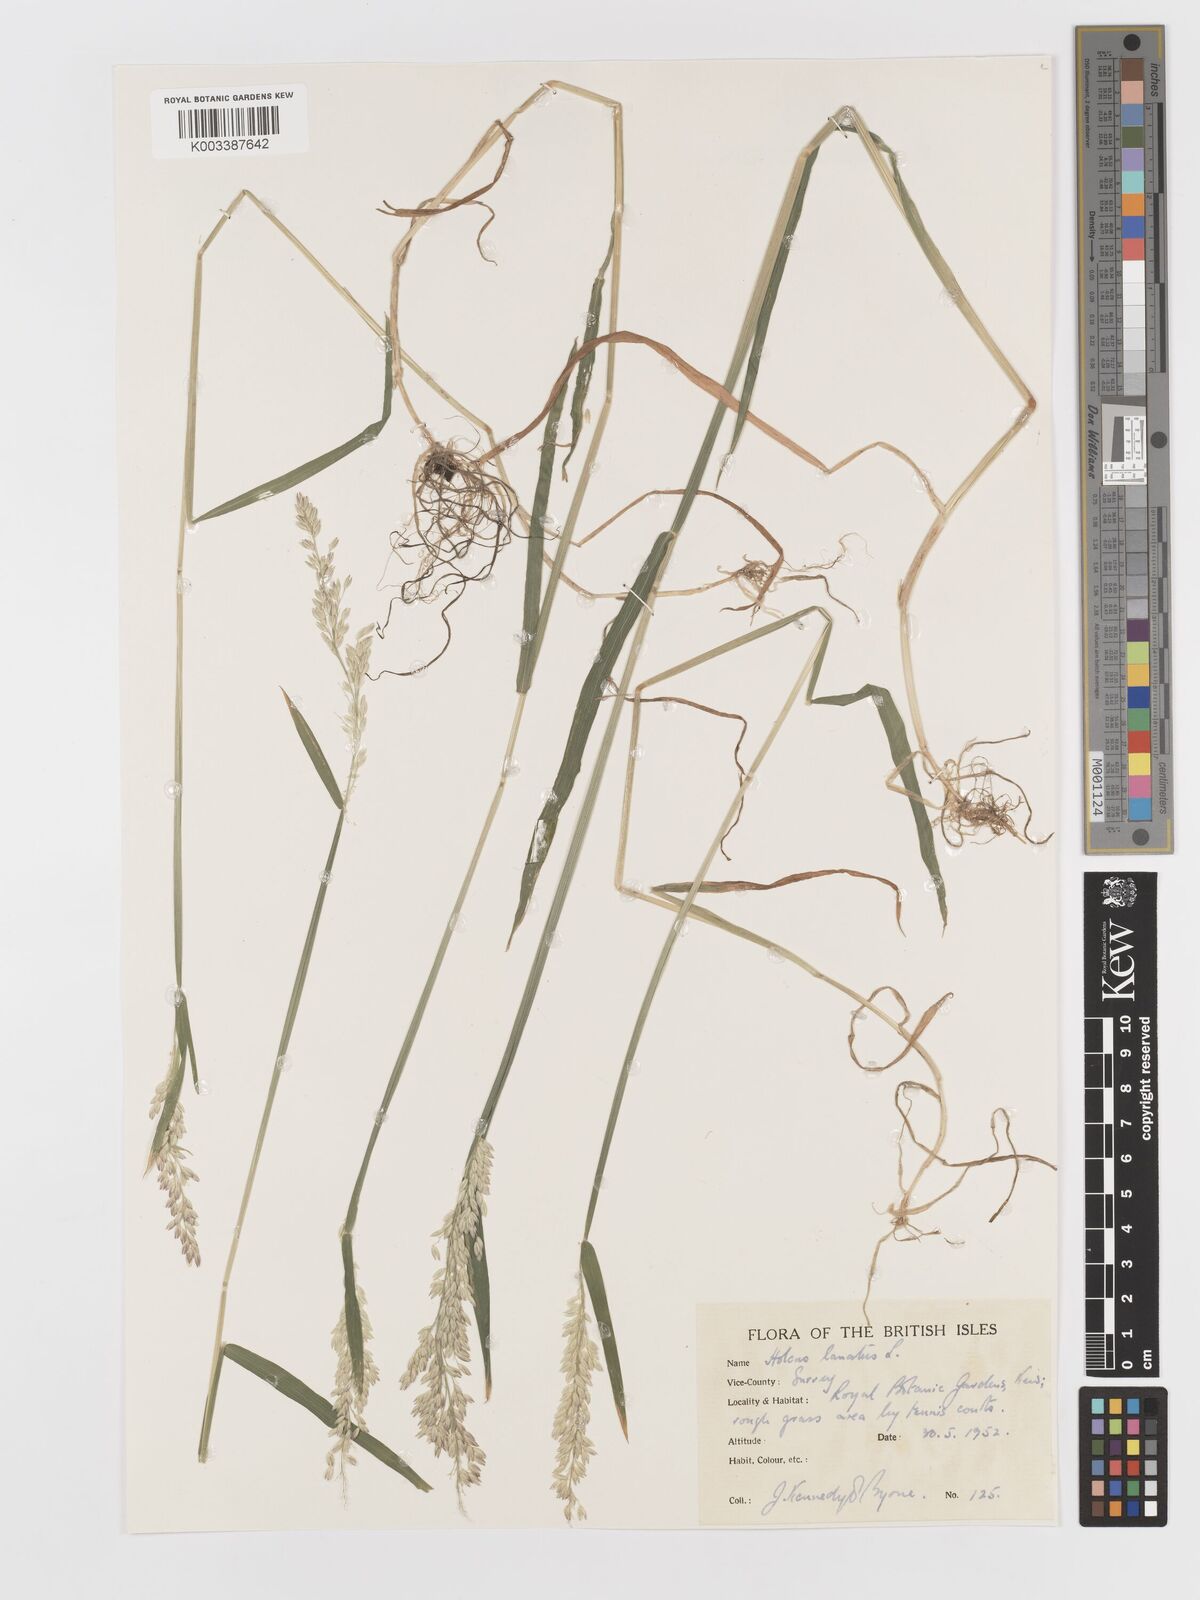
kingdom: Plantae
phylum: Tracheophyta
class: Liliopsida
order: Poales
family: Poaceae
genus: Holcus
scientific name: Holcus lanatus
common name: Yorkshire-fog
